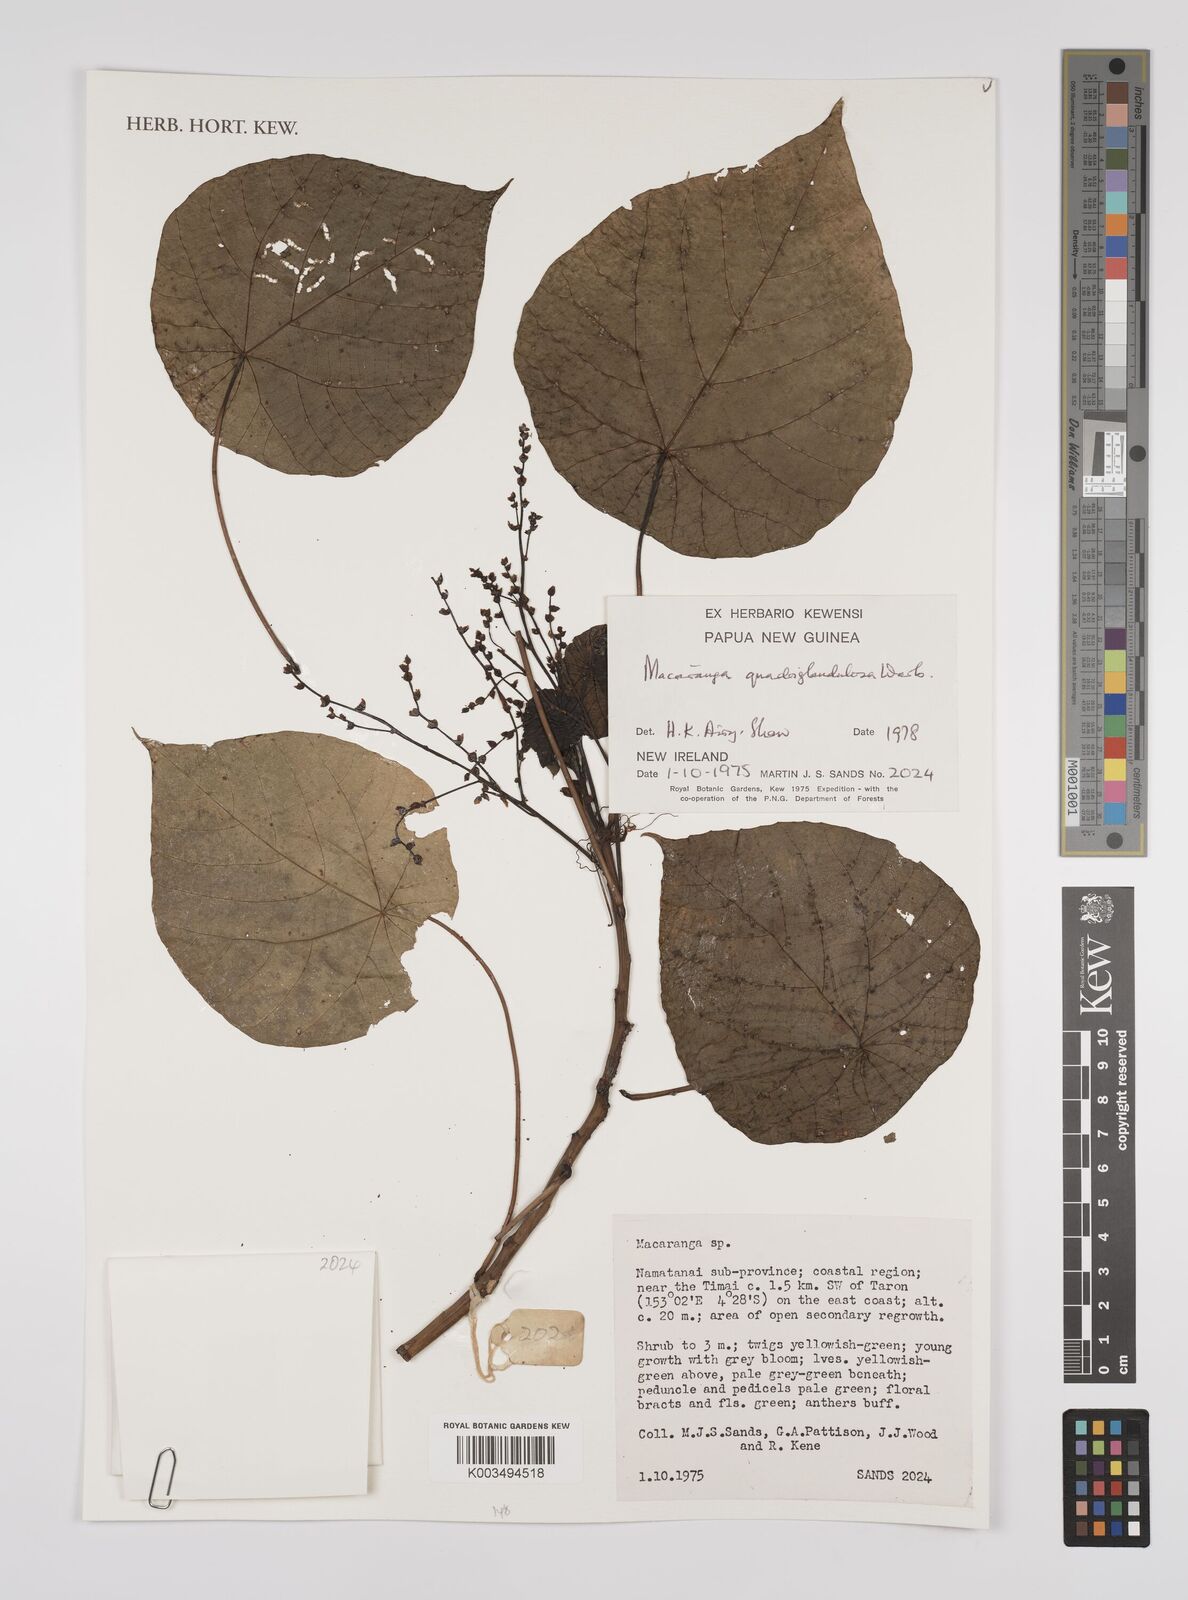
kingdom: Plantae
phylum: Tracheophyta
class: Magnoliopsida
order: Malpighiales
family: Euphorbiaceae
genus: Macaranga
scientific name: Macaranga quadriglandulosa
